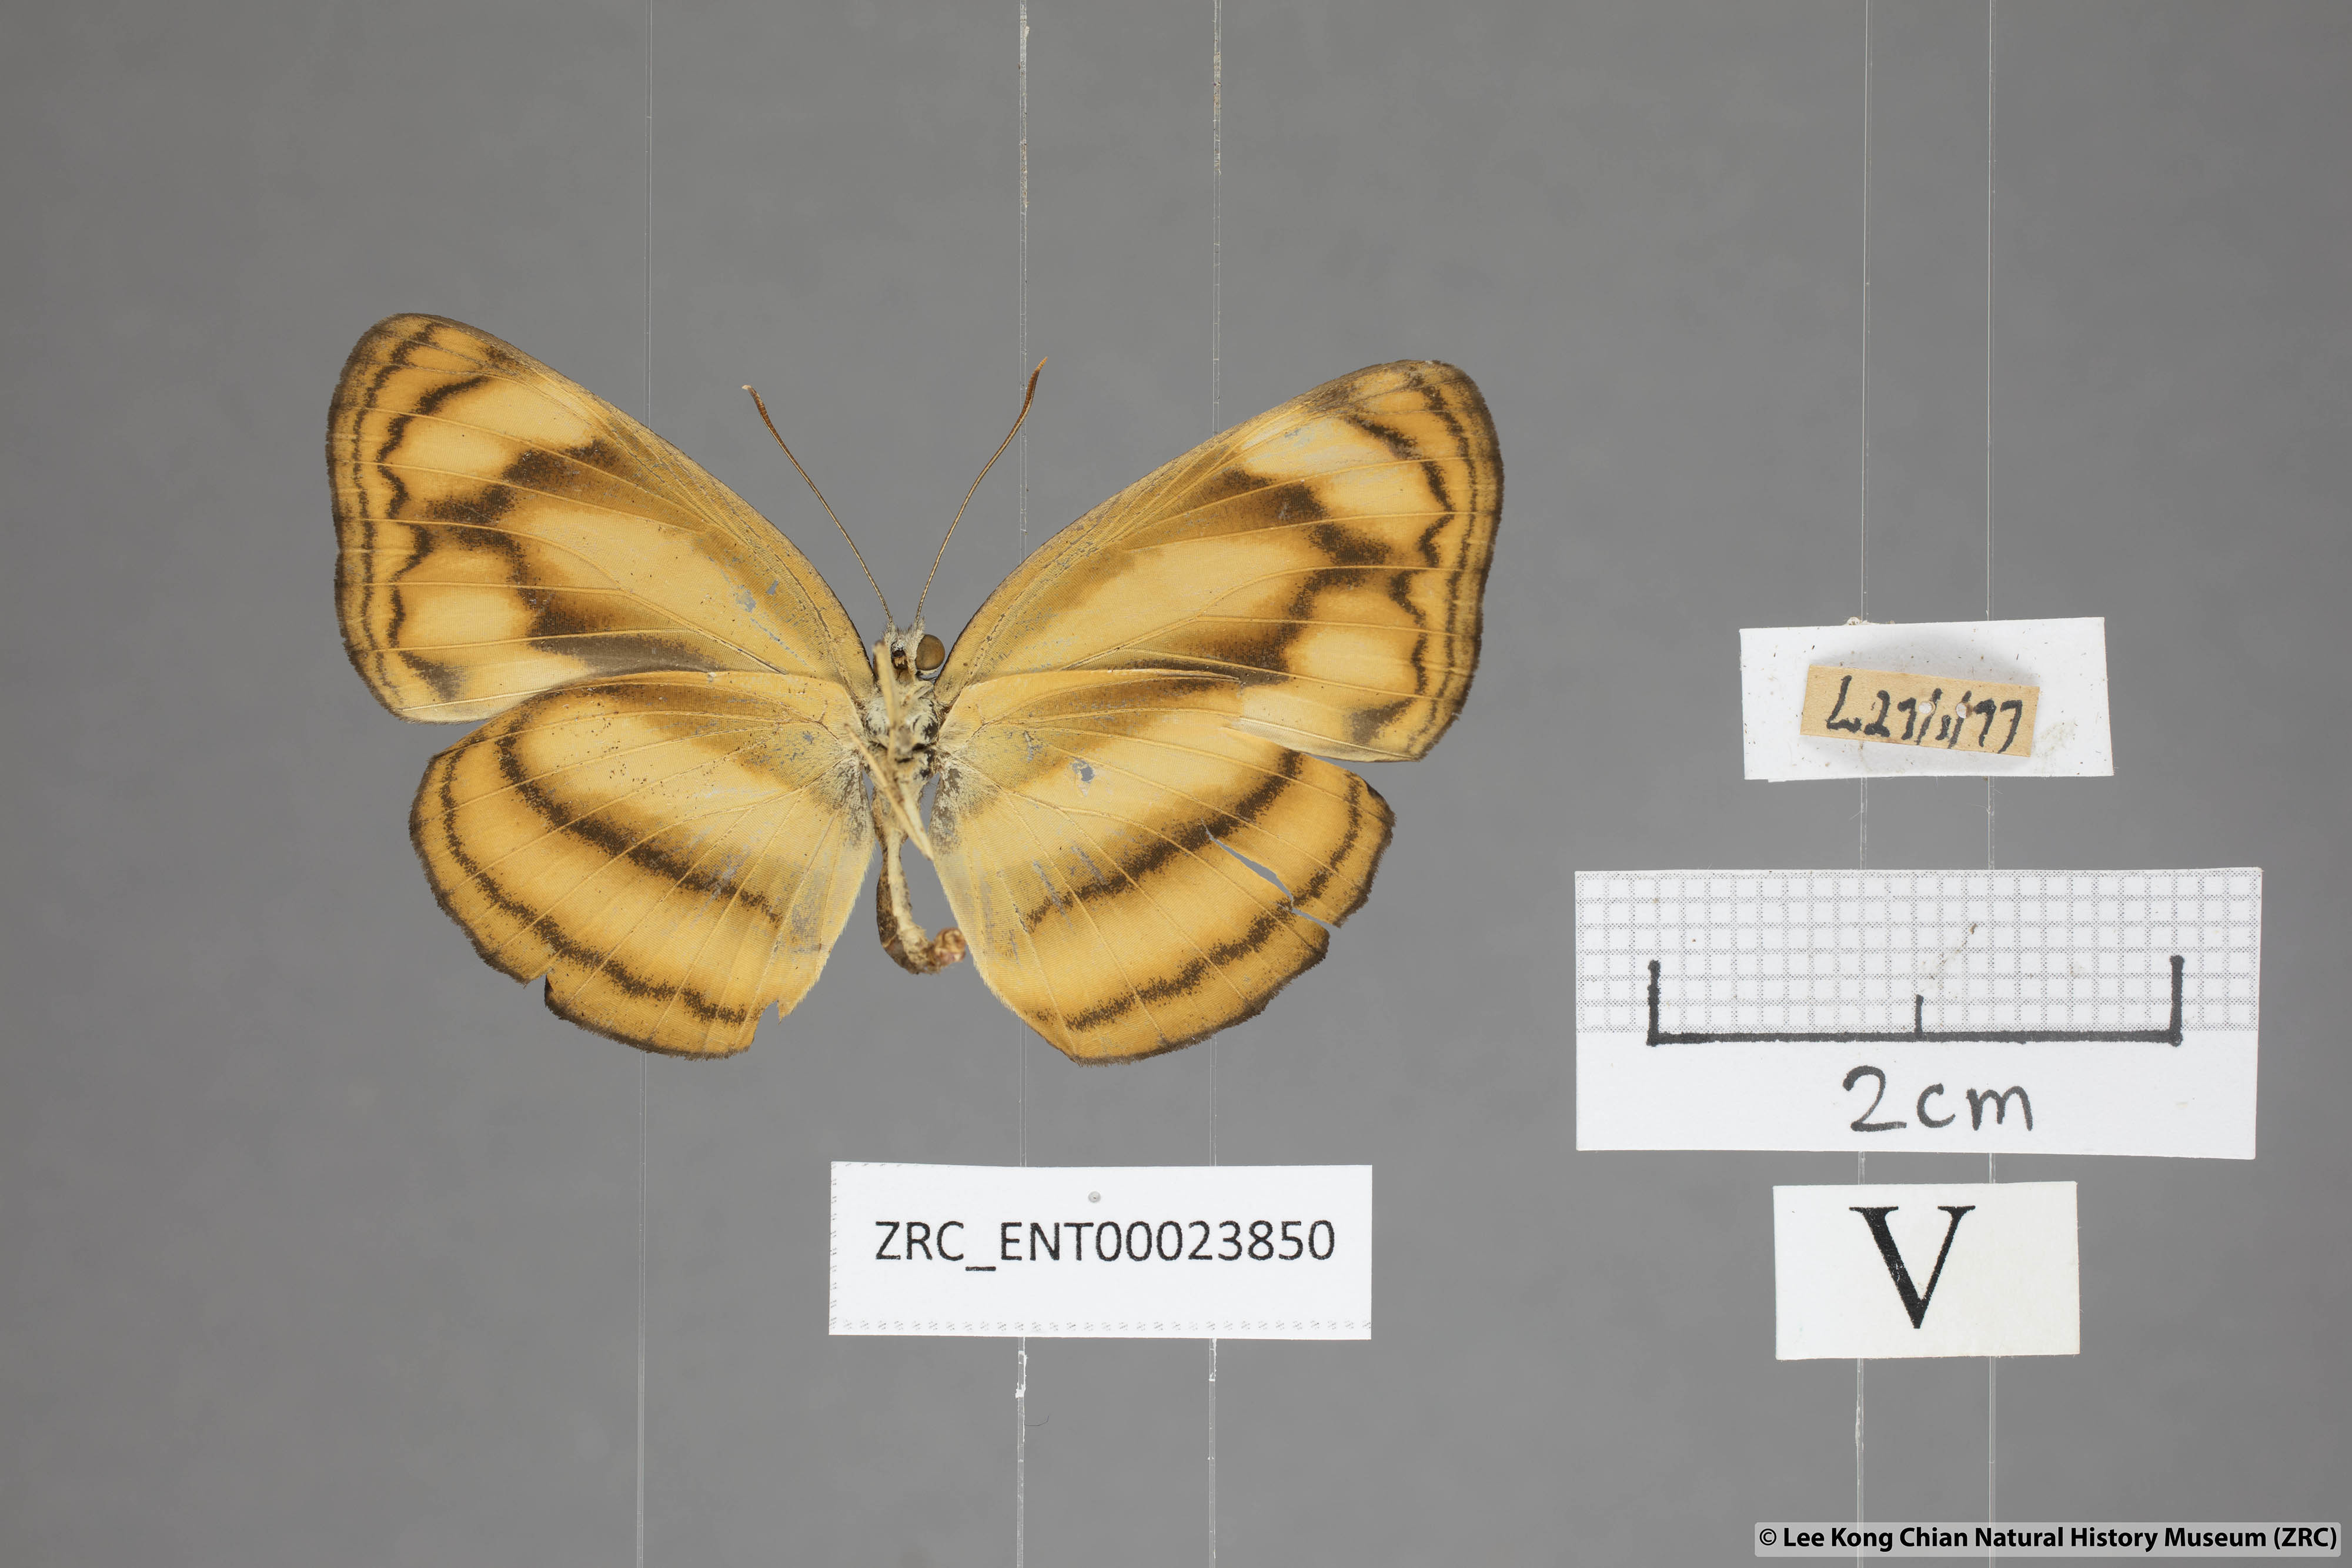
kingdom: Animalia
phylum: Arthropoda
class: Insecta
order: Lepidoptera
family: Nymphalidae
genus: Lasippa
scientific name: Lasippa tiga
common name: Malayan lascar
